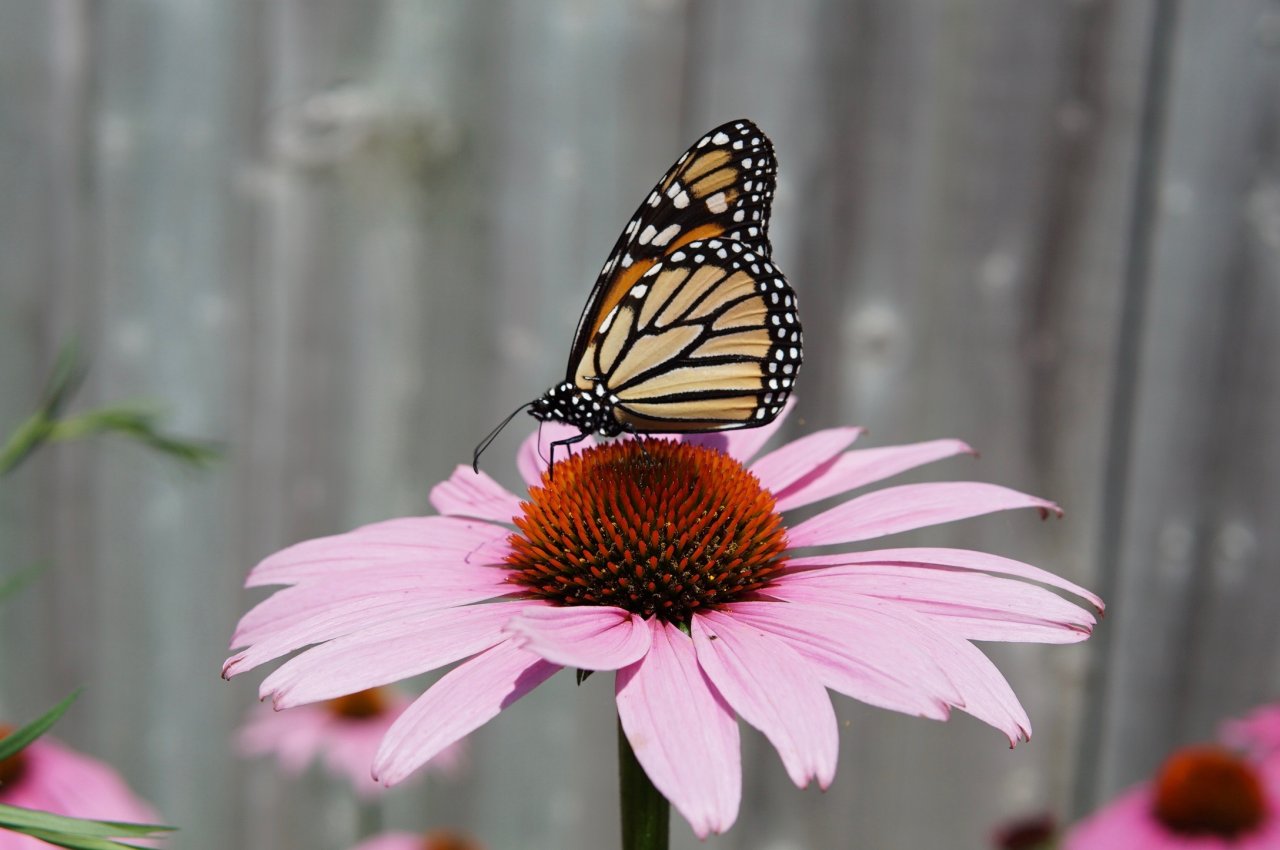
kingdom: Animalia
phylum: Arthropoda
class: Insecta
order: Lepidoptera
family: Nymphalidae
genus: Danaus
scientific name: Danaus plexippus
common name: Monarch
